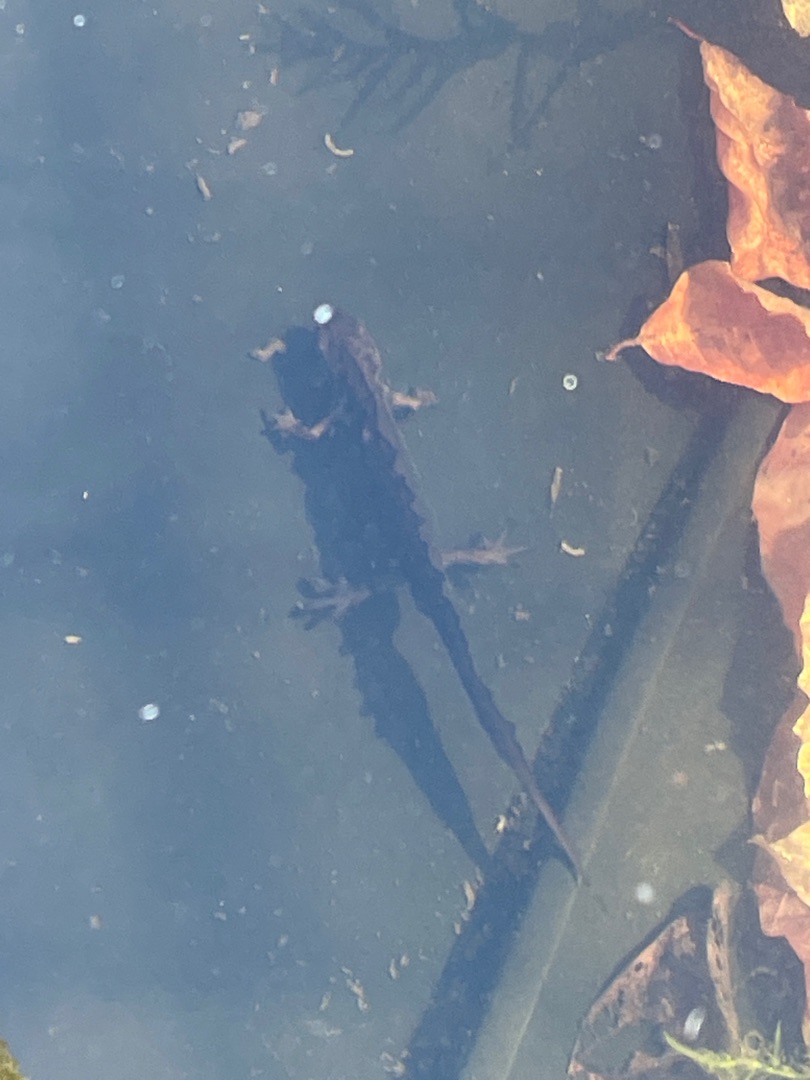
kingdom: Animalia
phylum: Chordata
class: Amphibia
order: Caudata
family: Salamandridae
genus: Lissotriton
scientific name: Lissotriton vulgaris
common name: Lille vandsalamander
